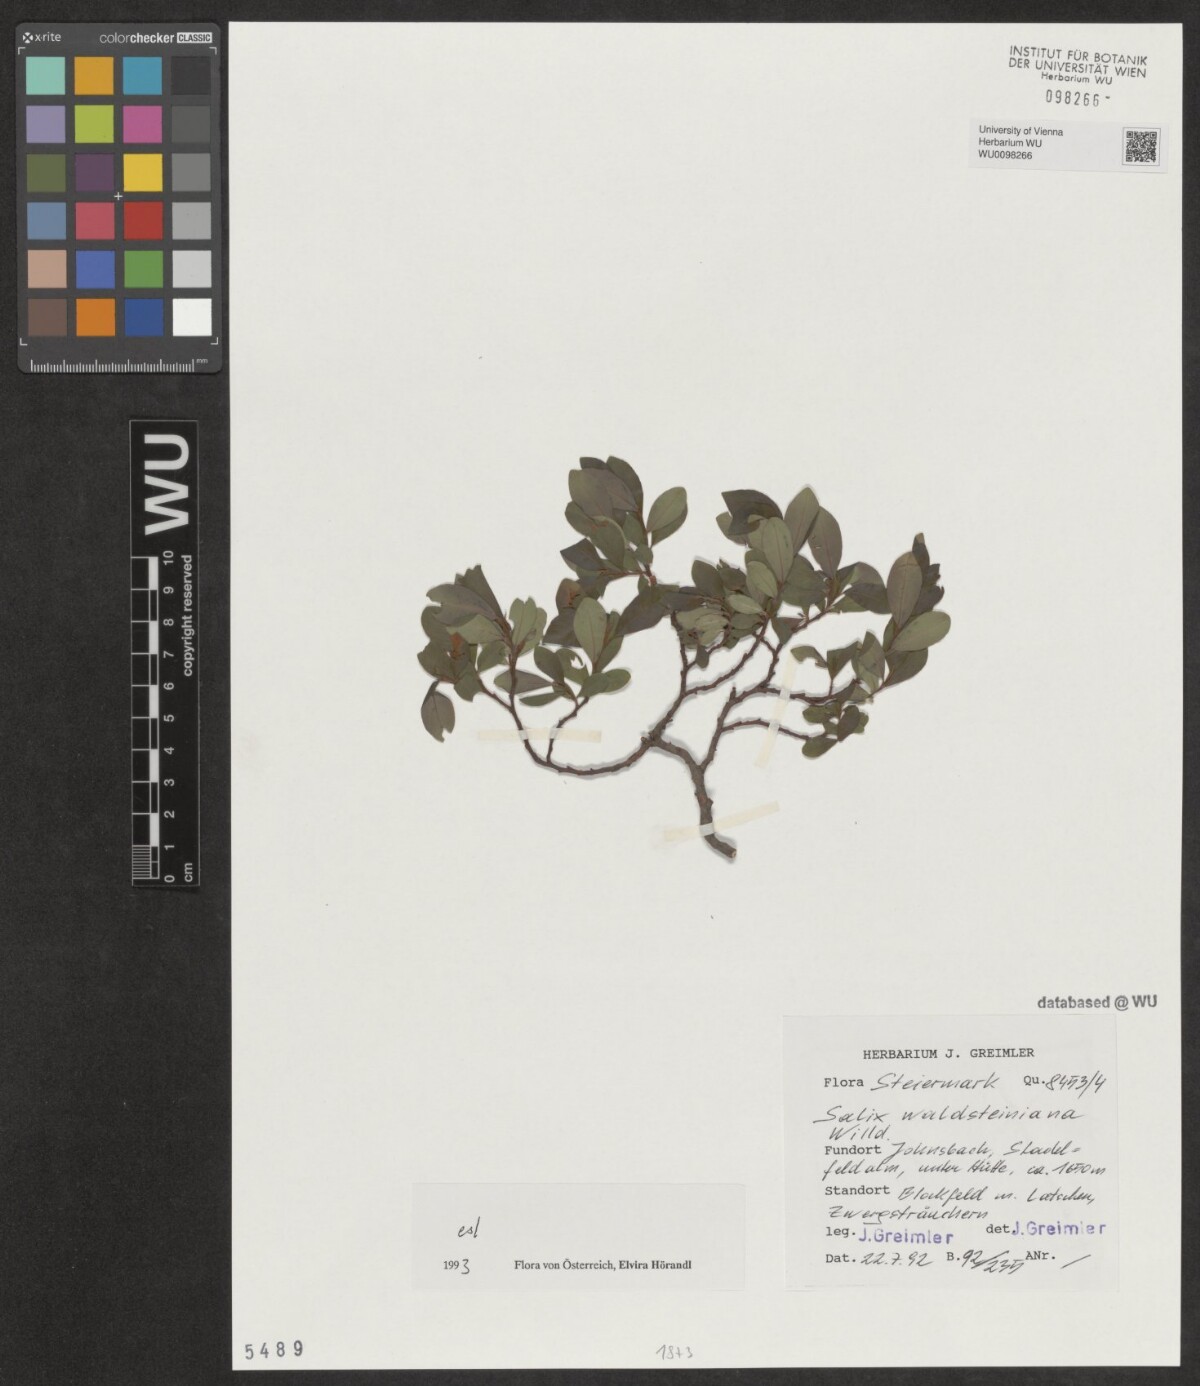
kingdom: Plantae
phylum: Tracheophyta
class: Magnoliopsida
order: Malpighiales
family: Salicaceae
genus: Salix
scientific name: Salix waldsteiniana
